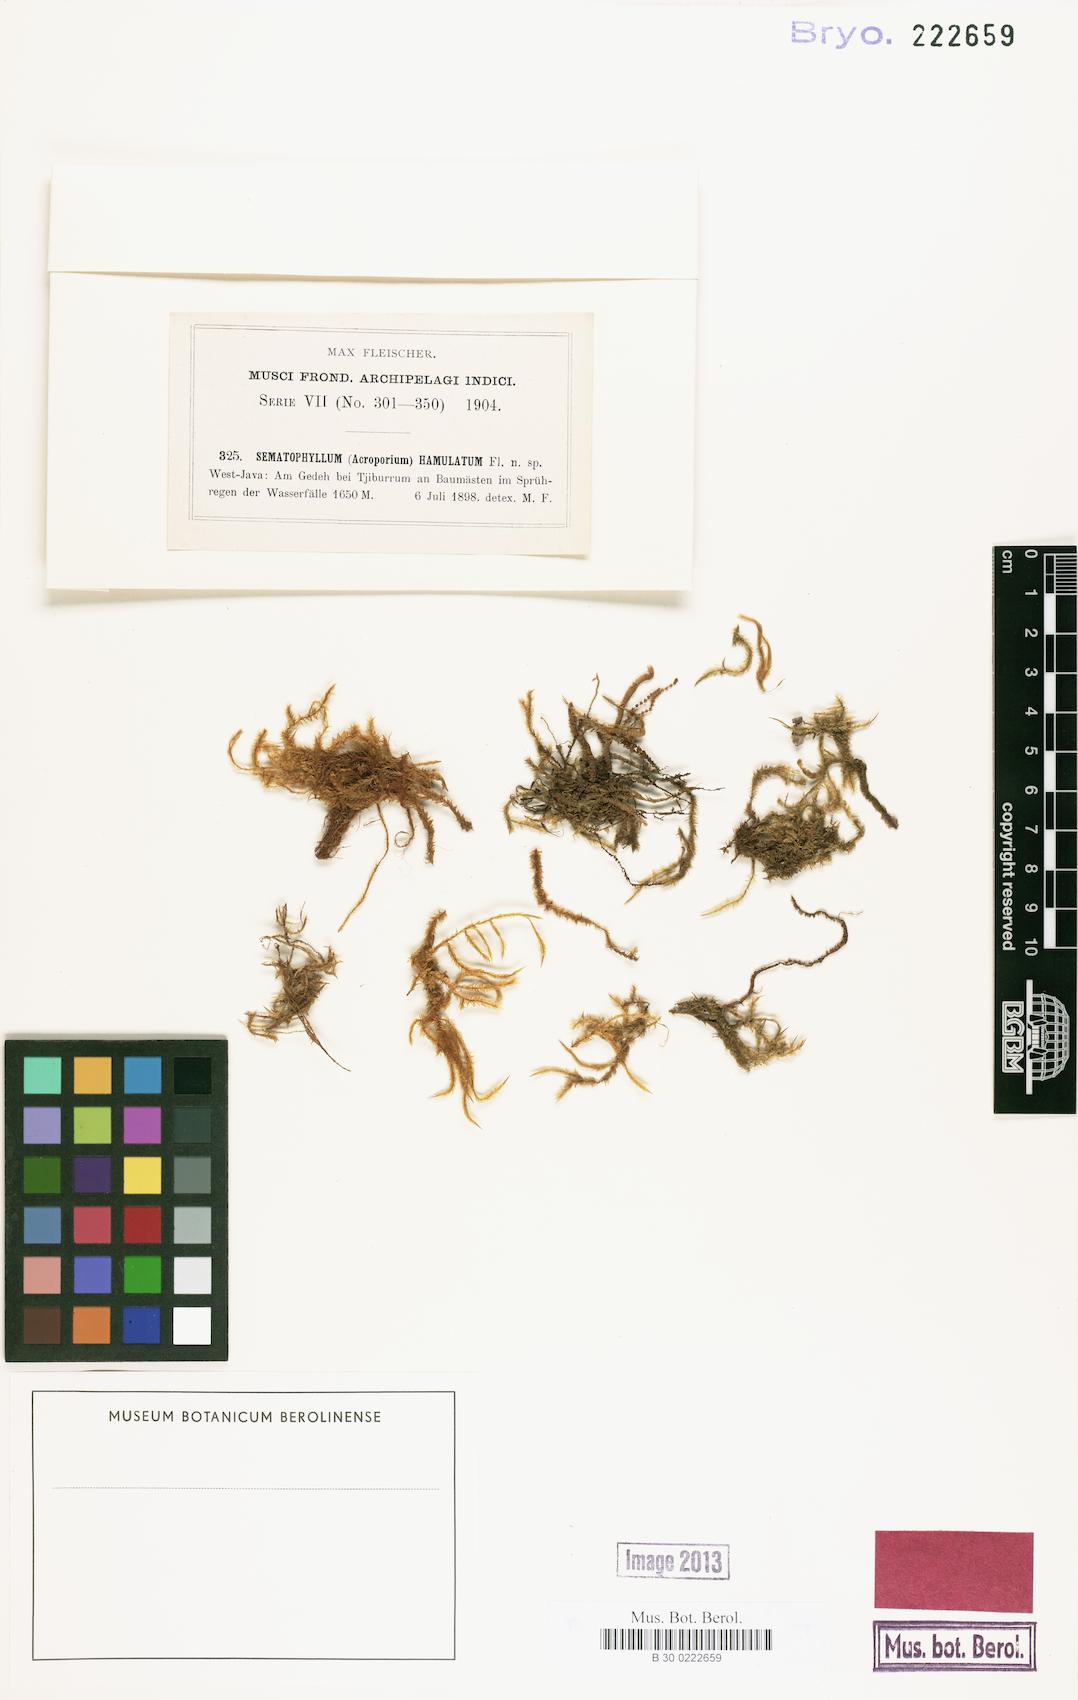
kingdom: Plantae
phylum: Bryophyta
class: Bryopsida
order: Hypnales
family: Sematophyllaceae
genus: Acroporium
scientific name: Acroporium hyalinum
